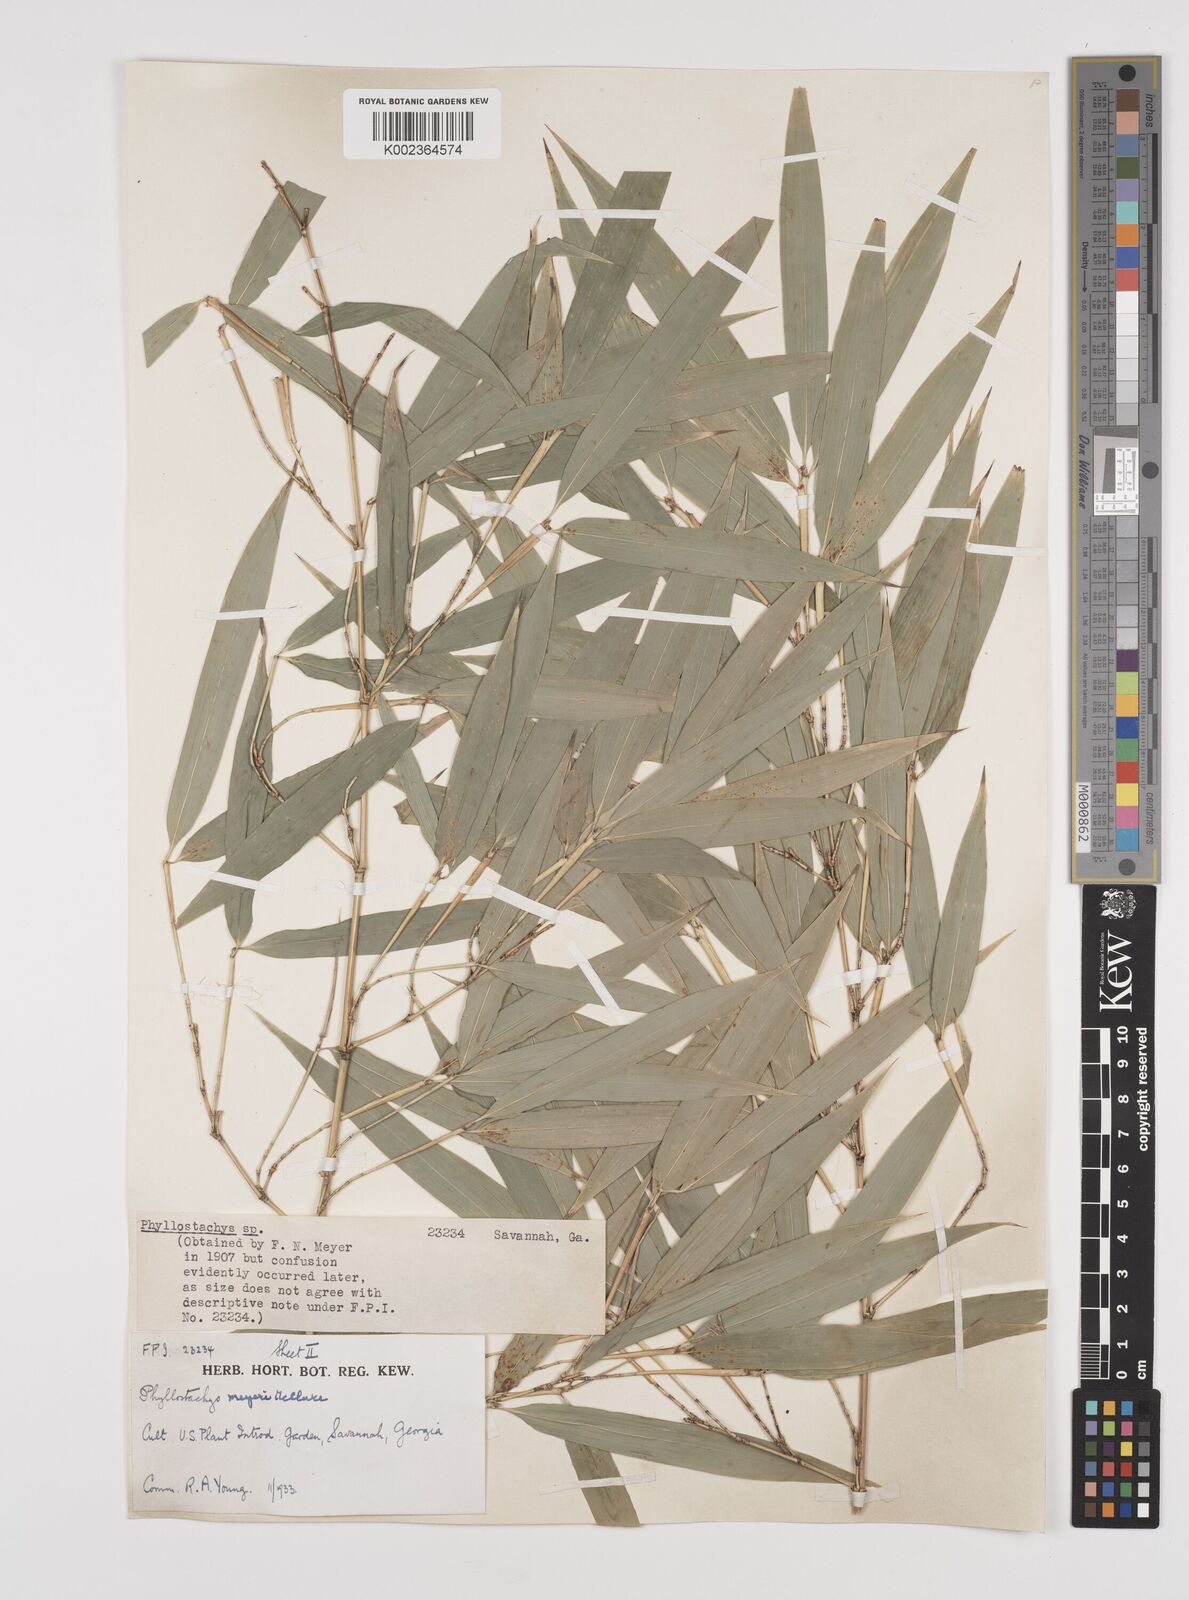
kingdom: Plantae
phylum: Tracheophyta
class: Liliopsida
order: Poales
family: Poaceae
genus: Phyllostachys
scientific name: Phyllostachys meyeri
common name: Meyer's bamboo
